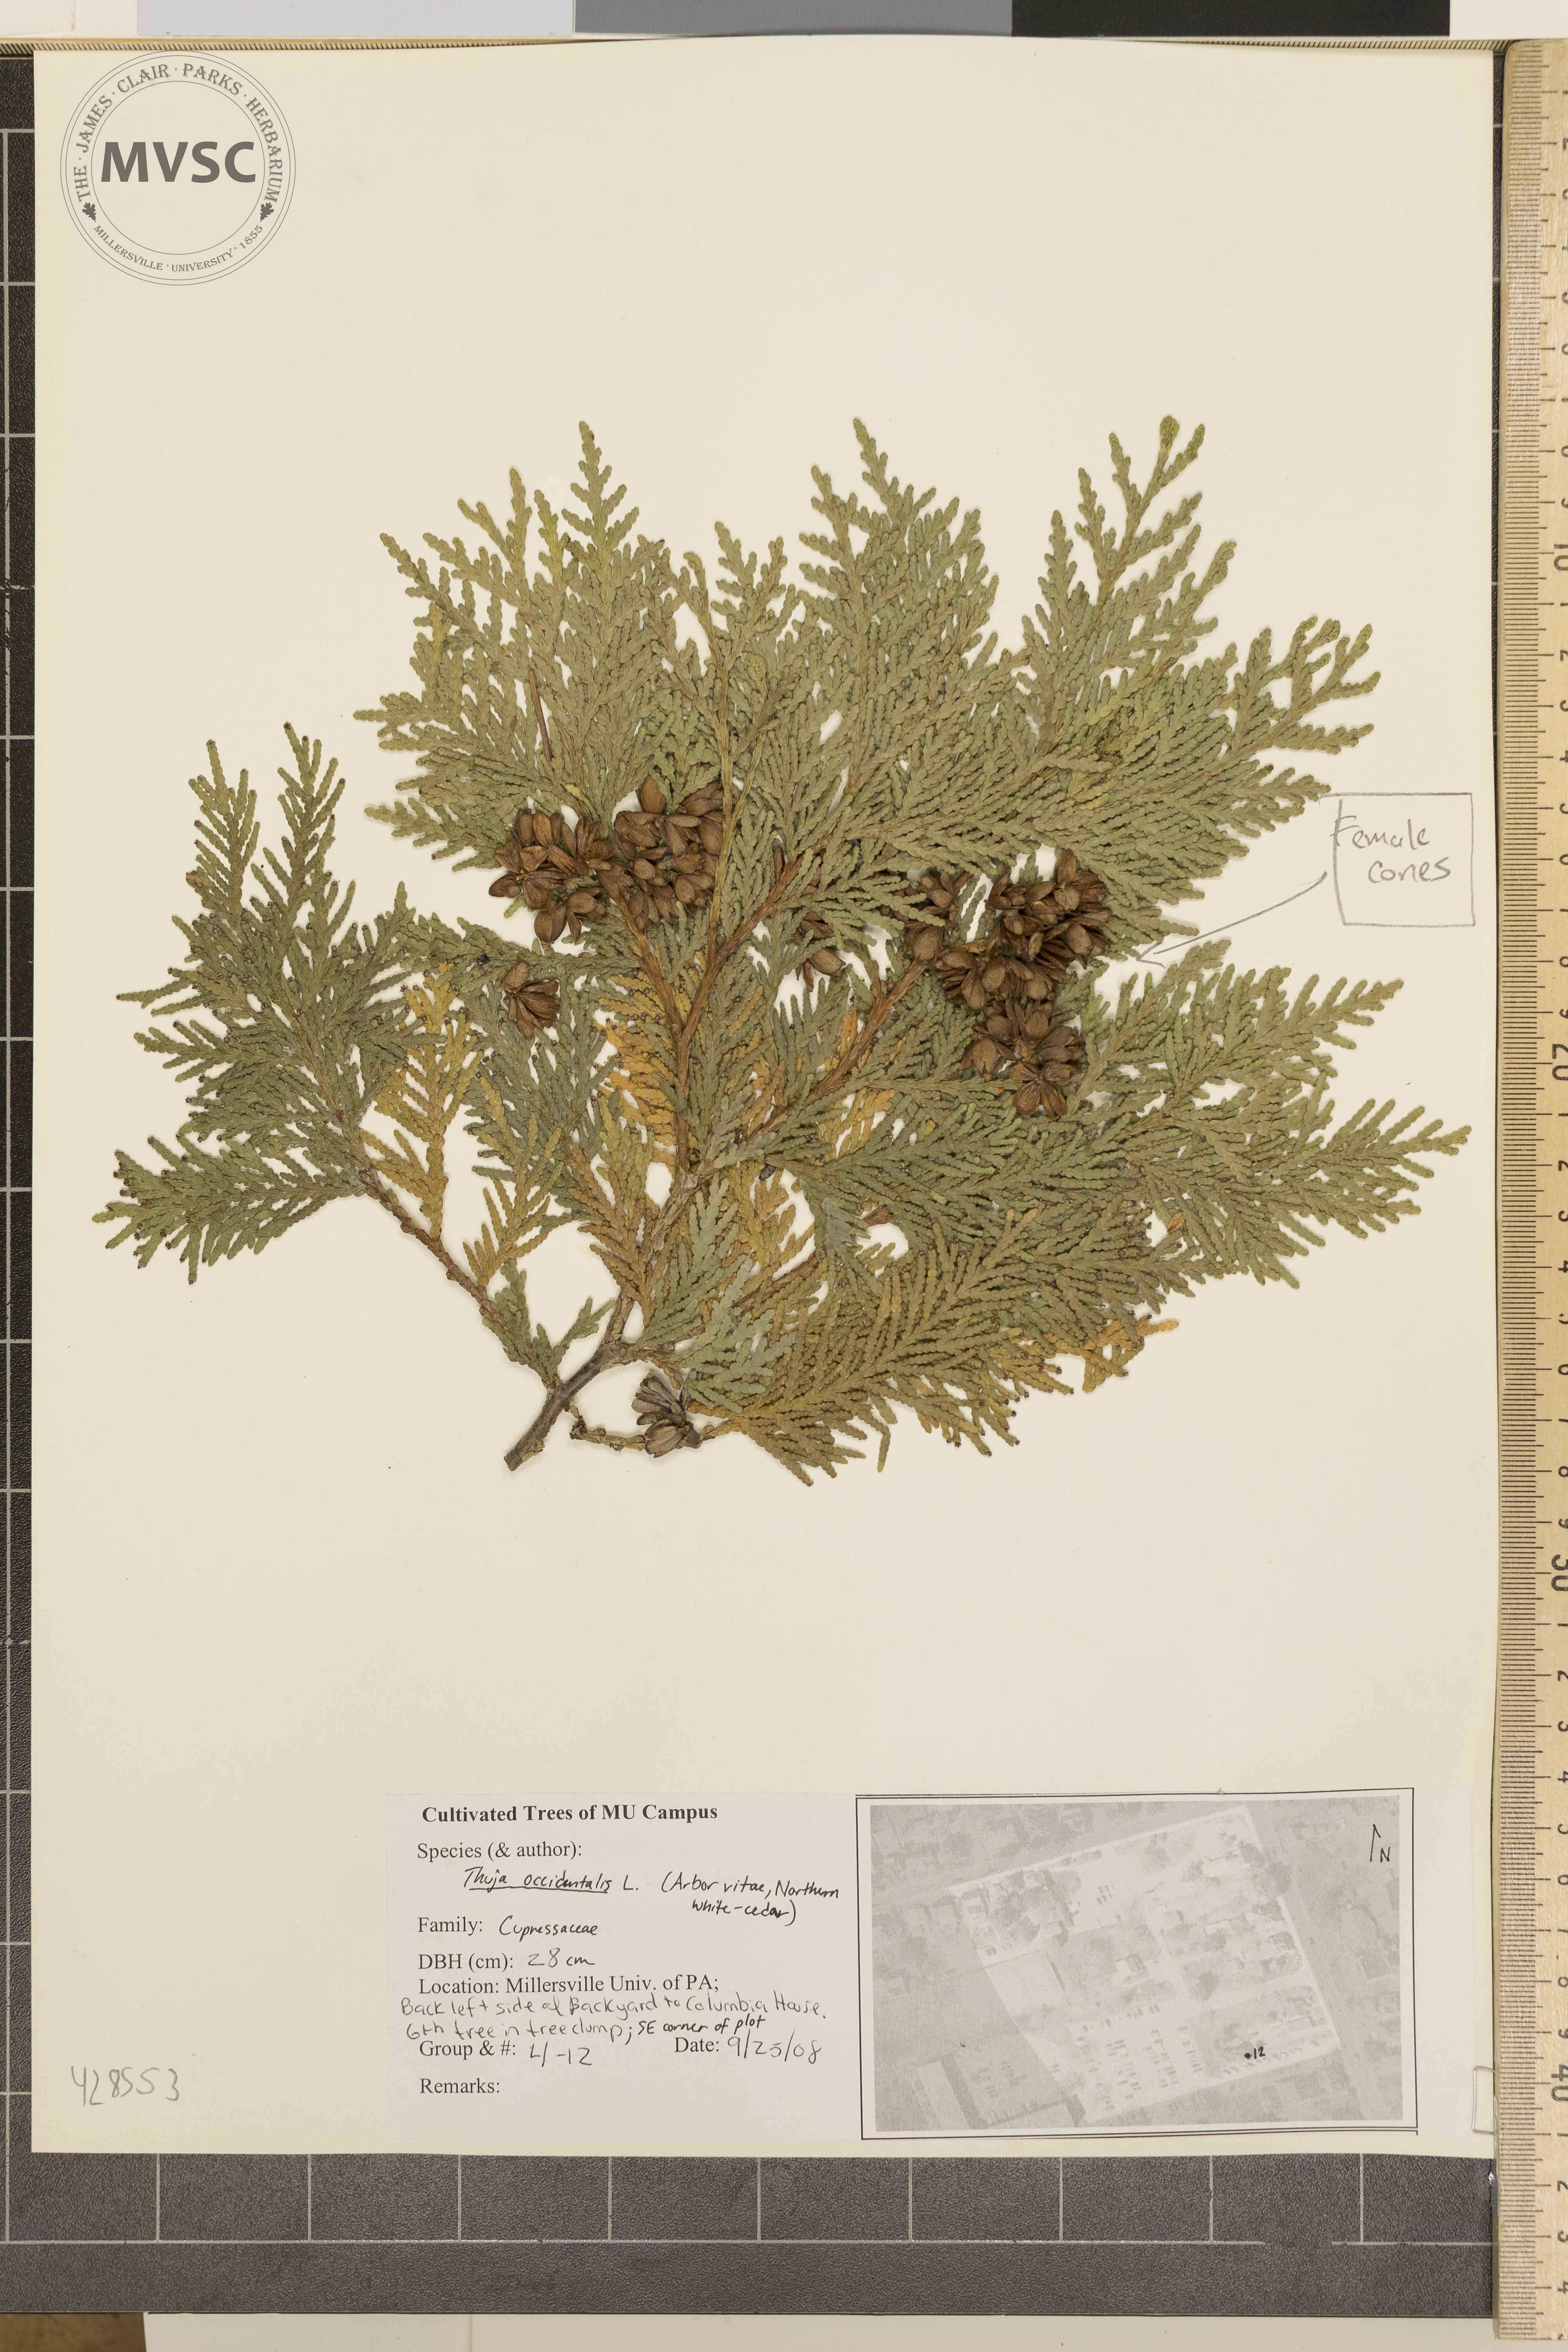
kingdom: Plantae
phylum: Tracheophyta
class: Pinopsida
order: Pinales
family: Cupressaceae
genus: Thuja
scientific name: Thuja occidentalis
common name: Arborvitae
